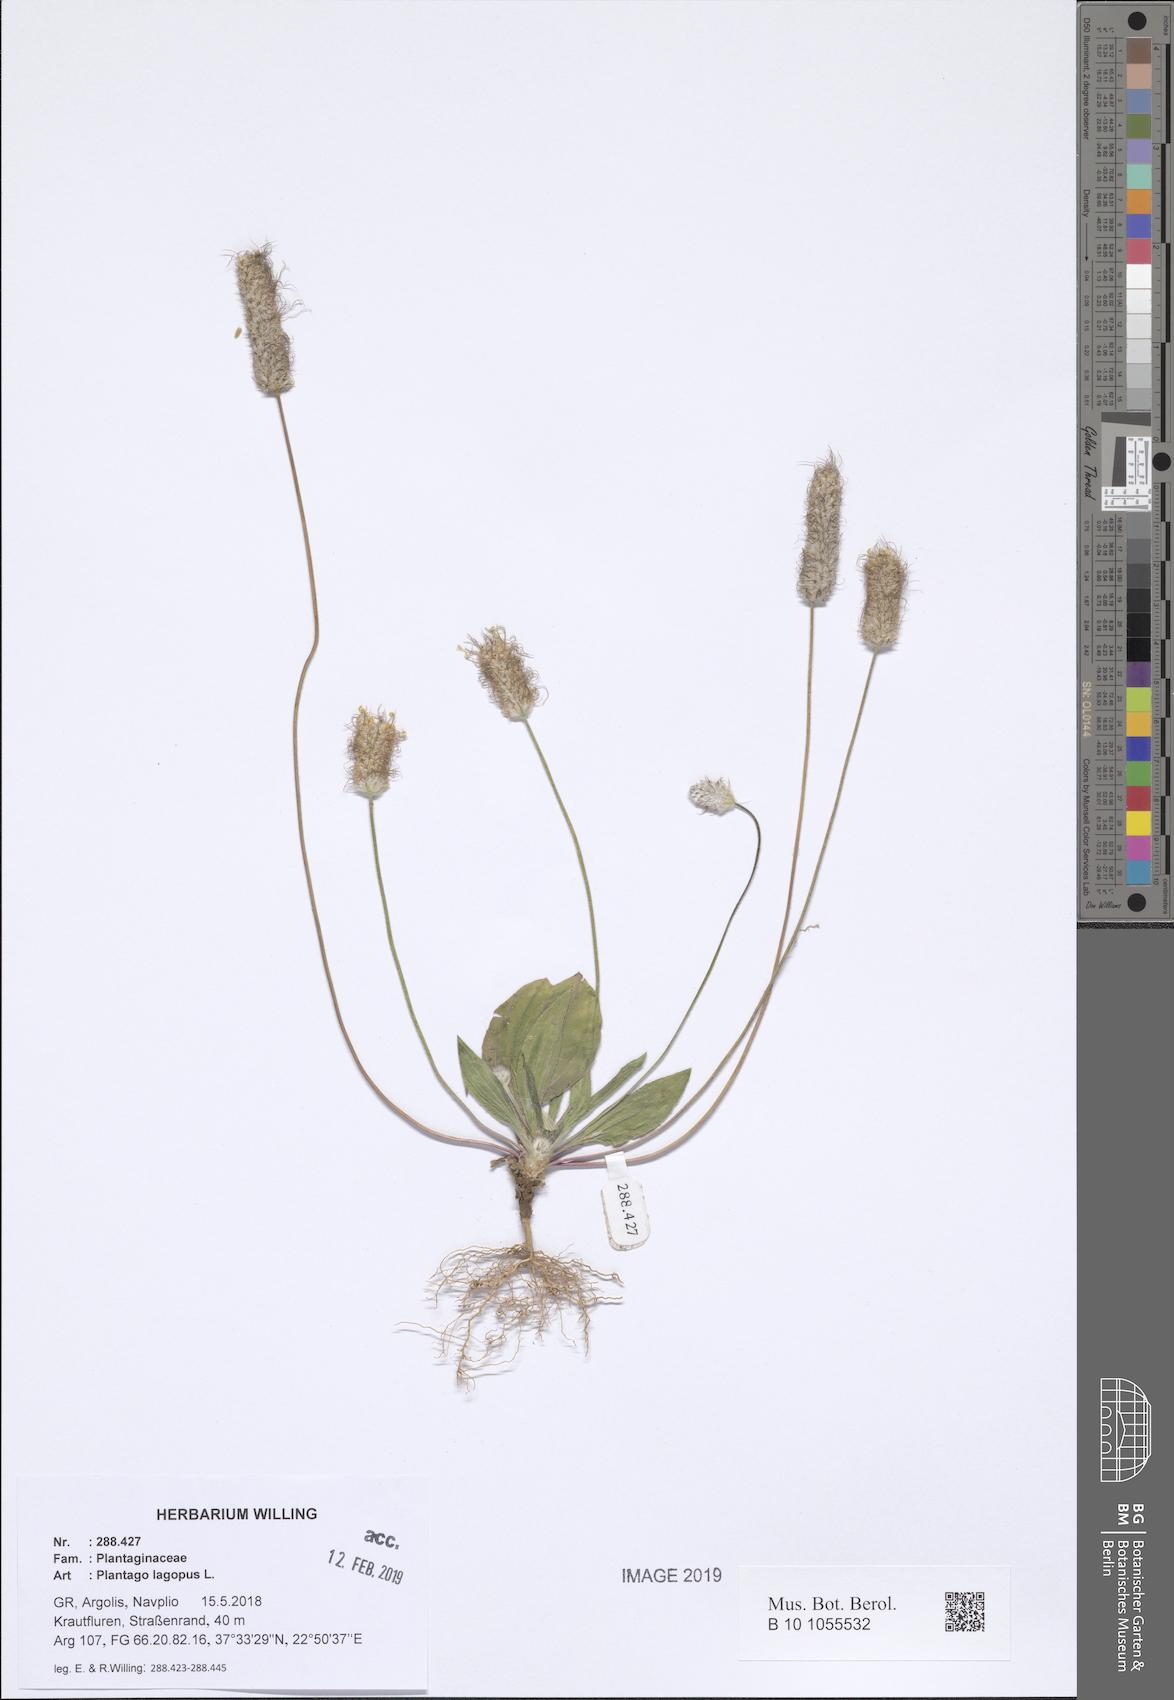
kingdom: Plantae
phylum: Tracheophyta
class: Magnoliopsida
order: Lamiales
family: Plantaginaceae
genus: Plantago
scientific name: Plantago lagopus
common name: Hare-foot plantain
